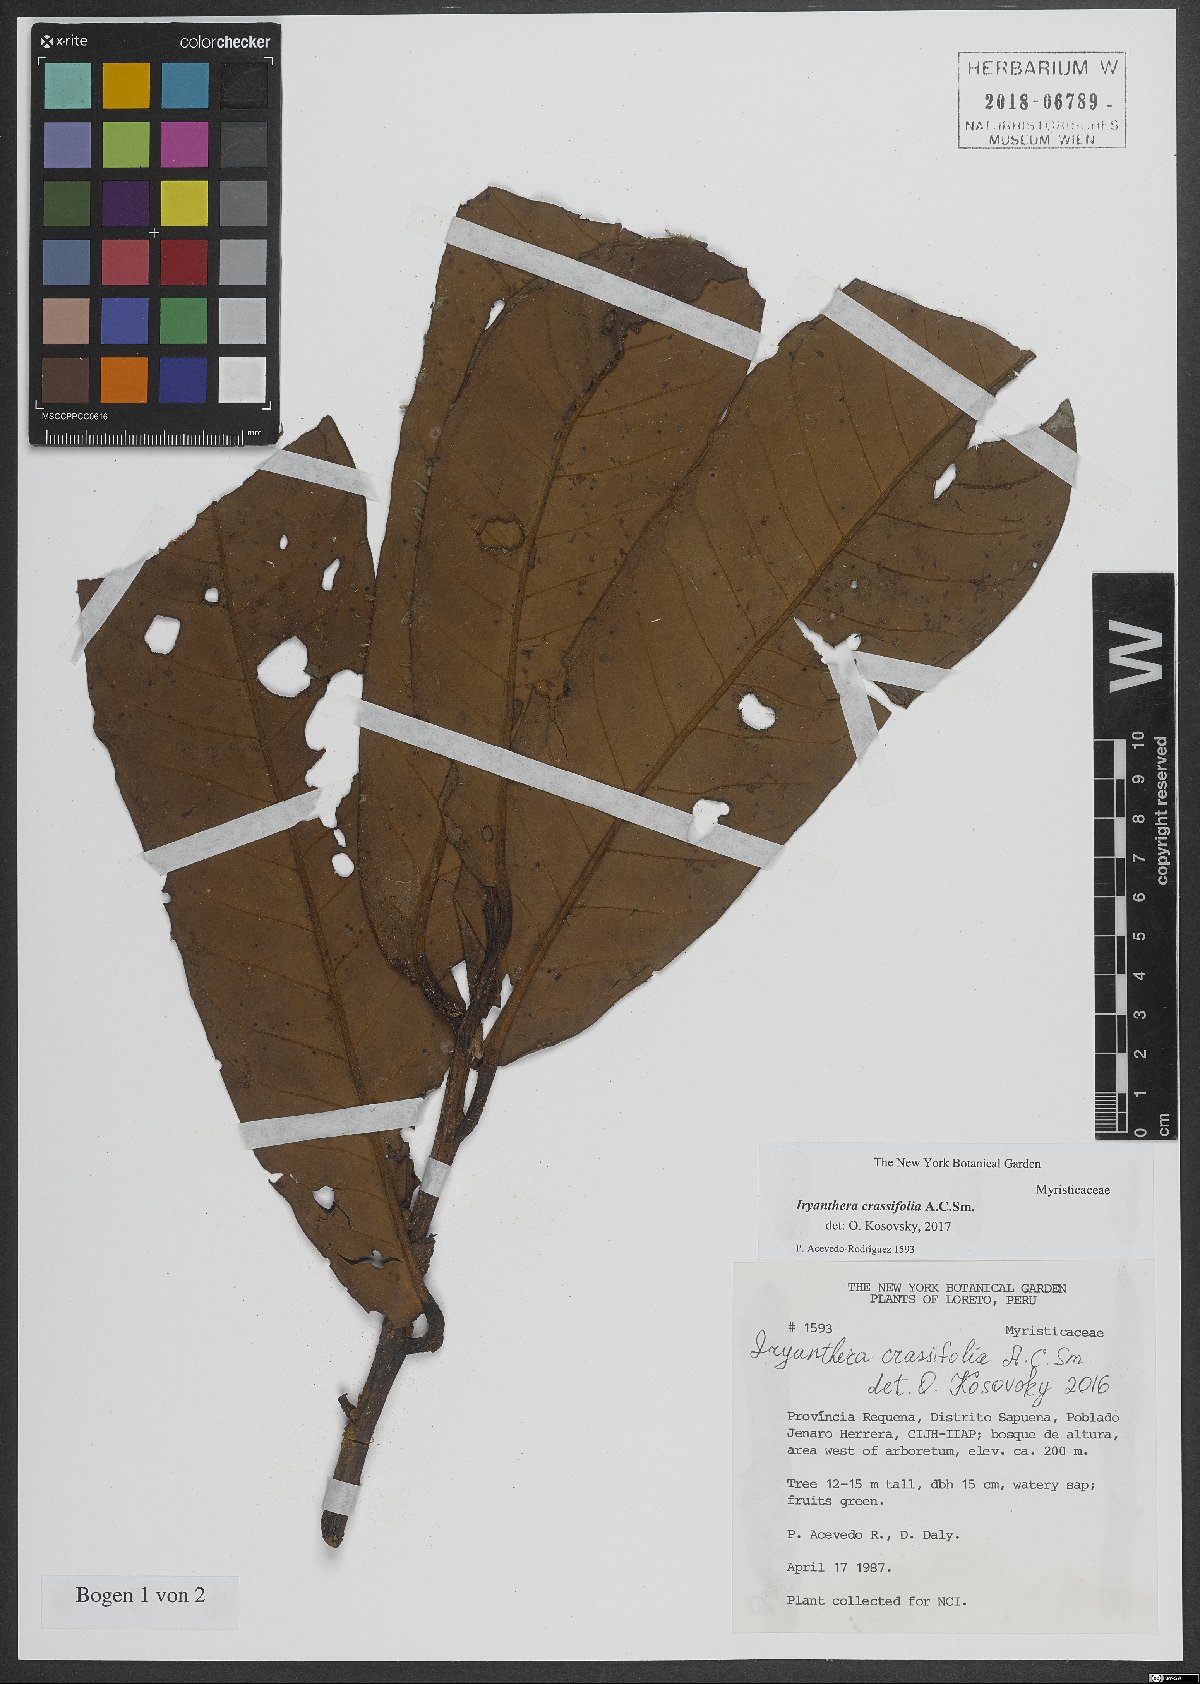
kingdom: Plantae
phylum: Tracheophyta
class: Magnoliopsida
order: Magnoliales
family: Myristicaceae
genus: Iryanthera
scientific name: Iryanthera crassifolia
